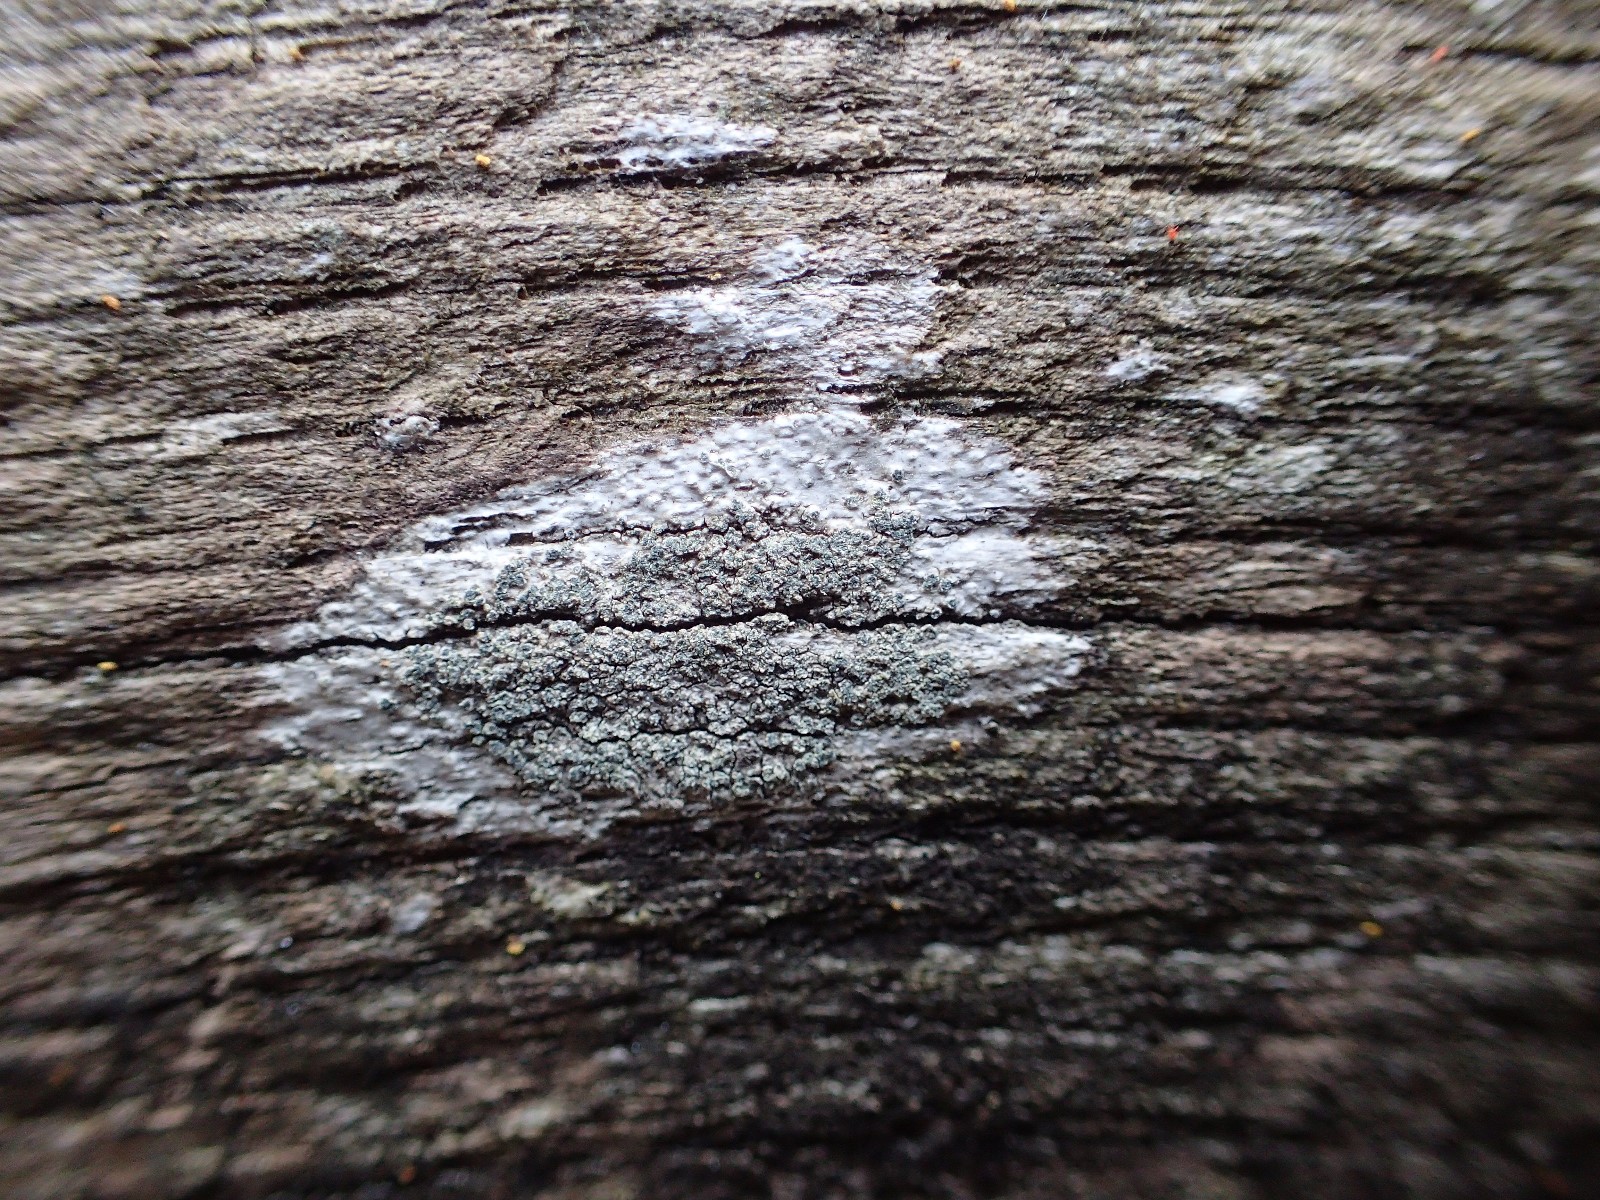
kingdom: Fungi
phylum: Ascomycota
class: Lecanoromycetes
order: Caliciales
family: Caliciaceae
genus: Buellia
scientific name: Buellia griseovirens
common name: grågrøn sortskivelav
